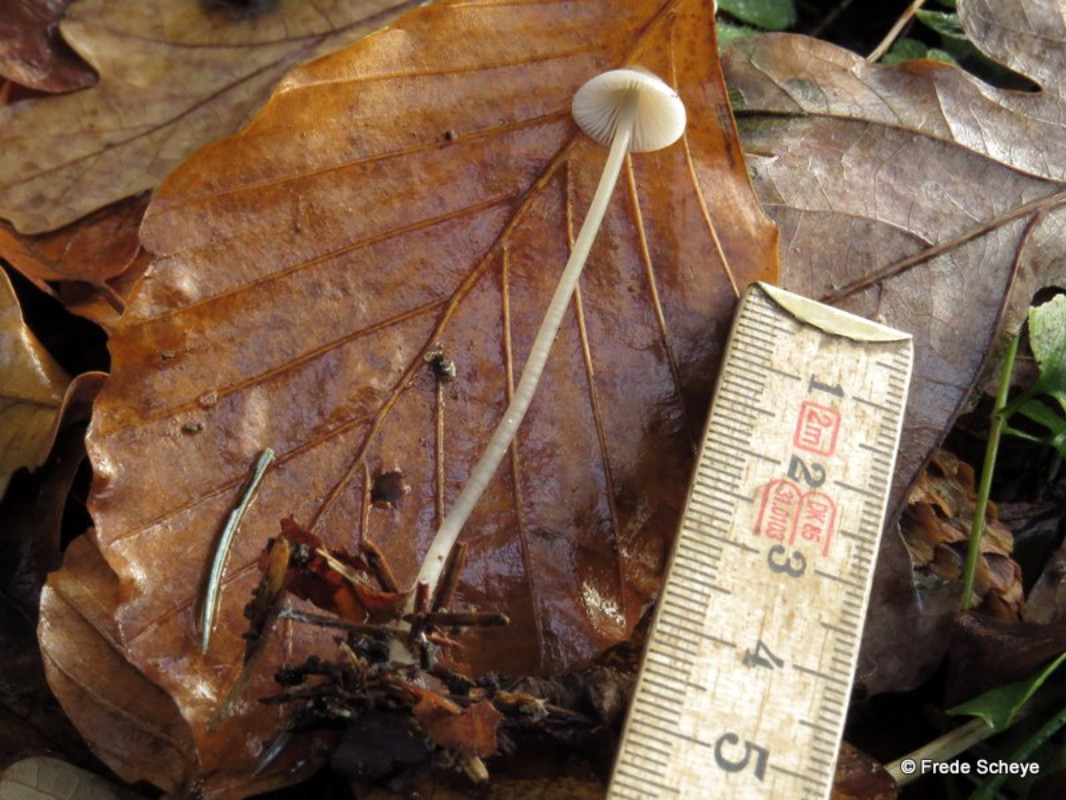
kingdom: Fungi
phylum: Basidiomycota
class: Agaricomycetes
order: Agaricales
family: Mycenaceae
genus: Mycena
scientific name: Mycena vitilis
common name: blankstokket huesvamp
